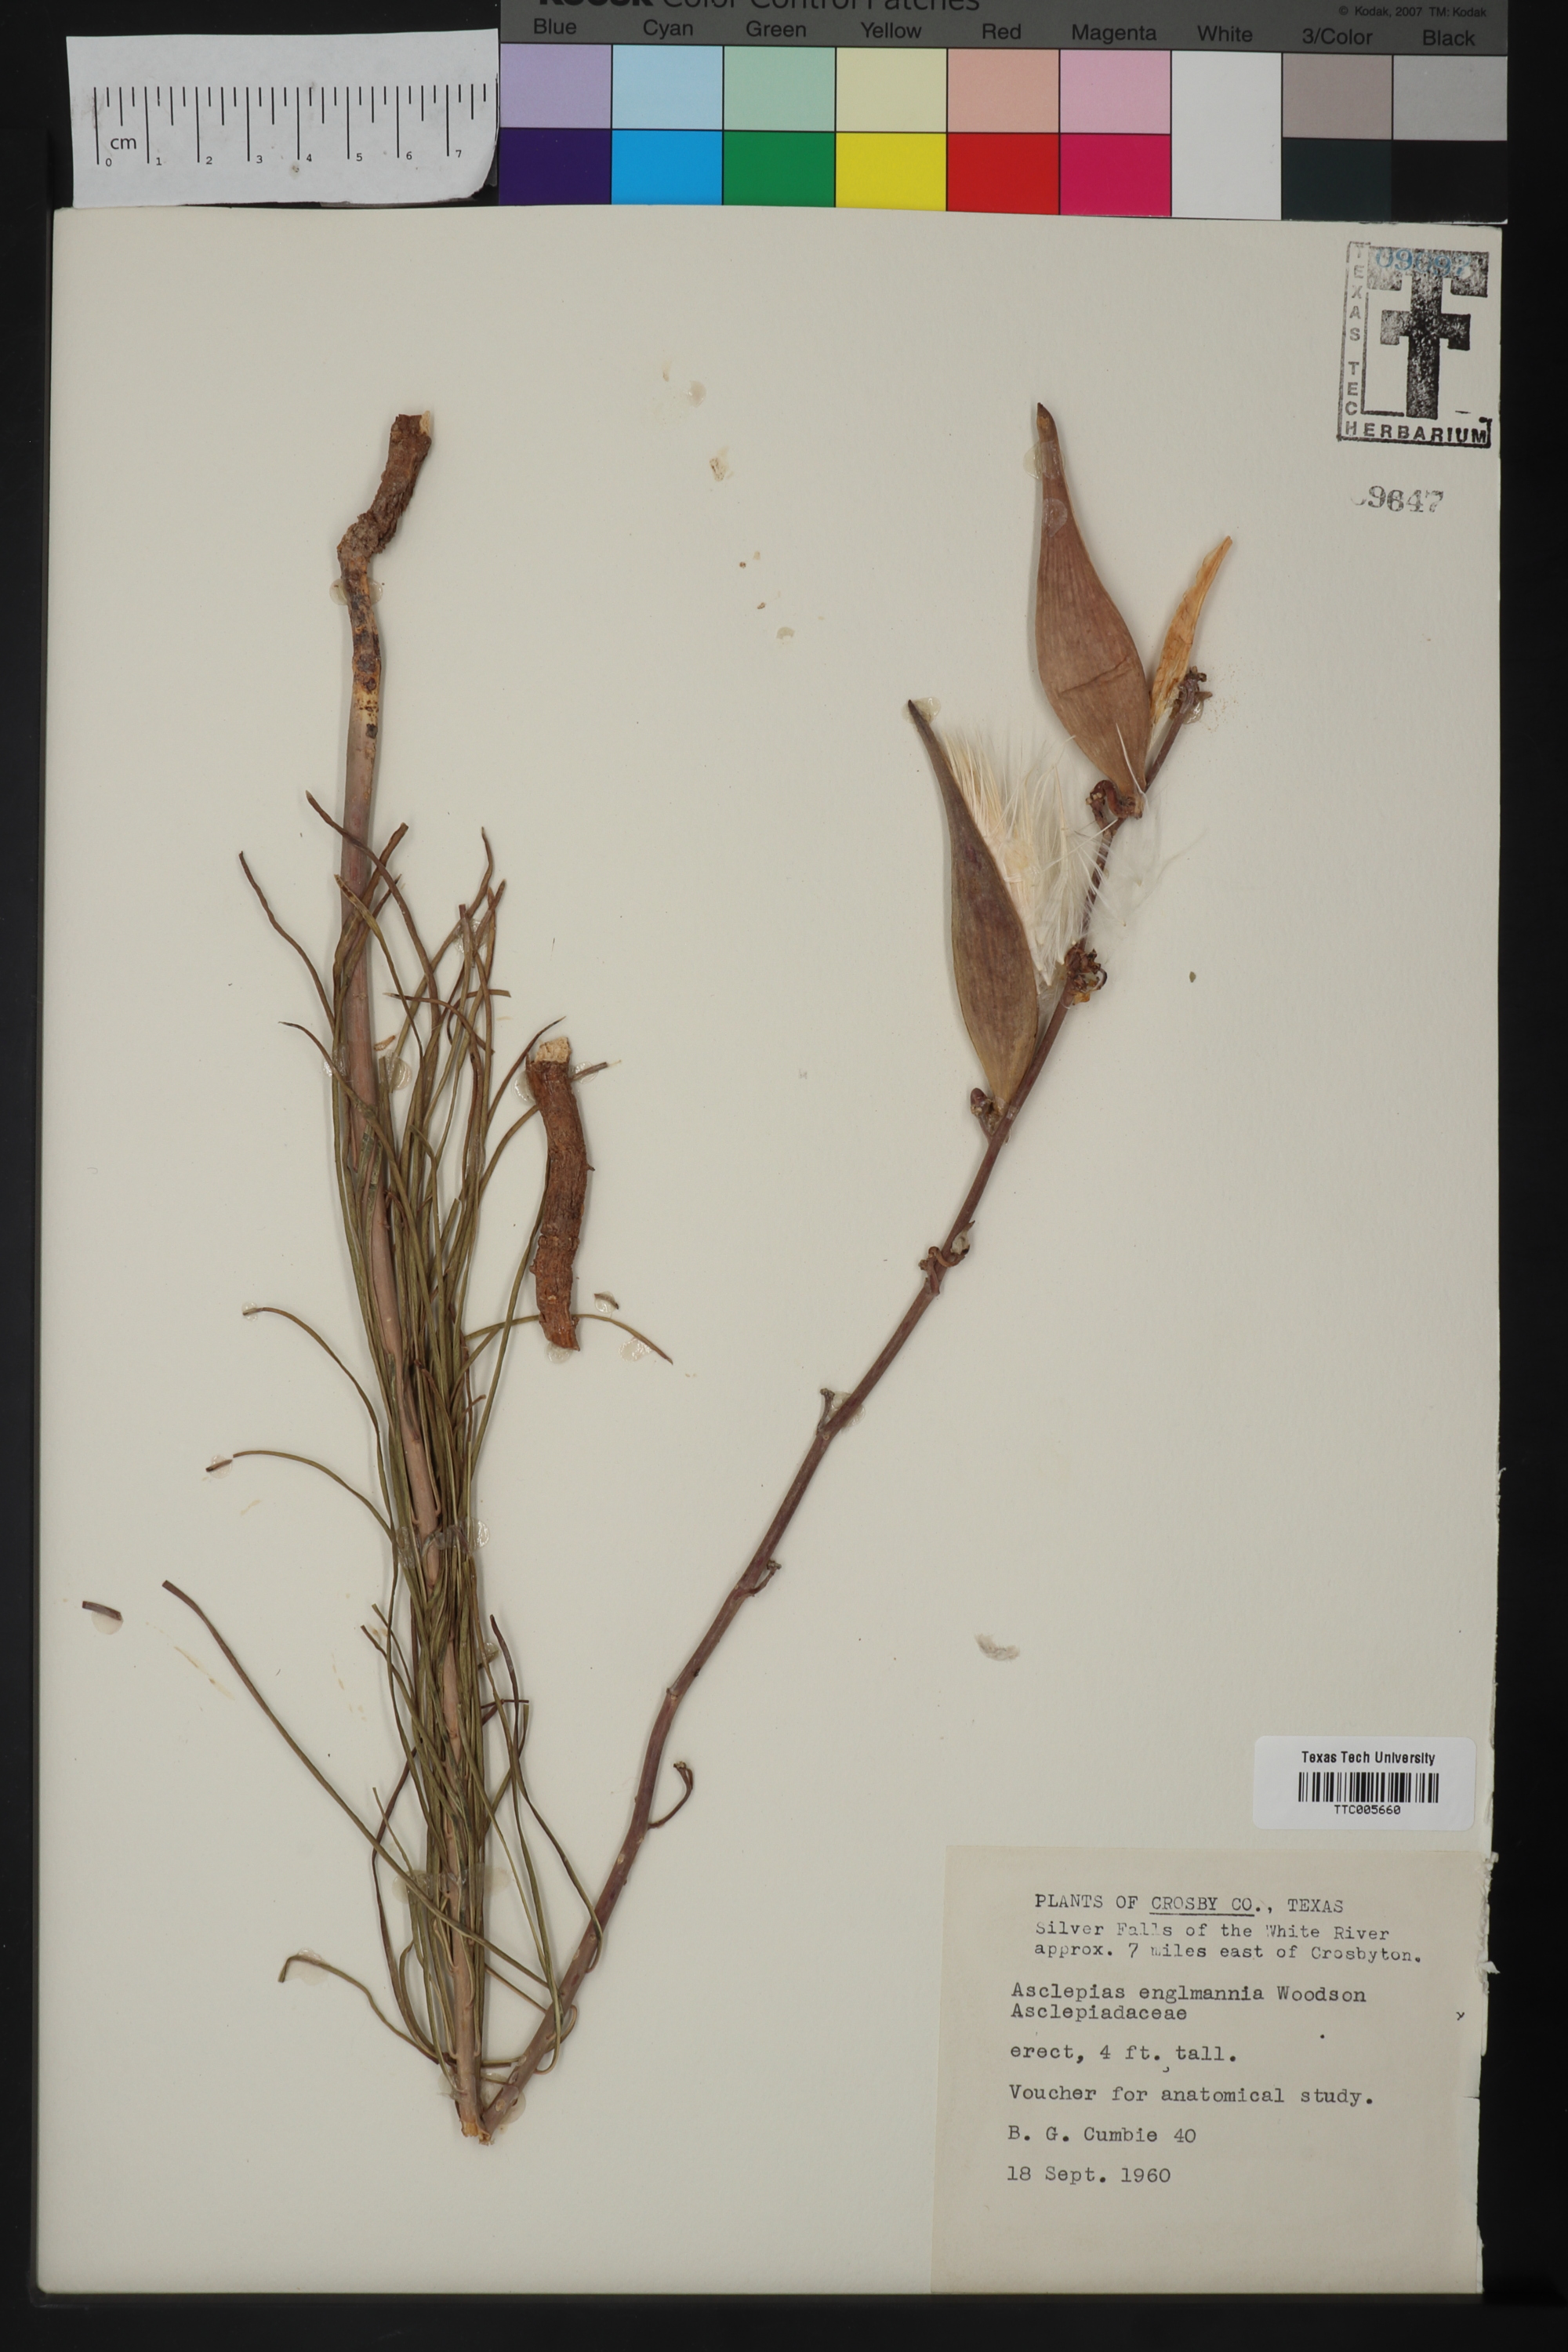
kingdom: Plantae
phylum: Tracheophyta
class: Magnoliopsida
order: Gentianales
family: Apocynaceae
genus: Asclepias
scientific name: Asclepias
